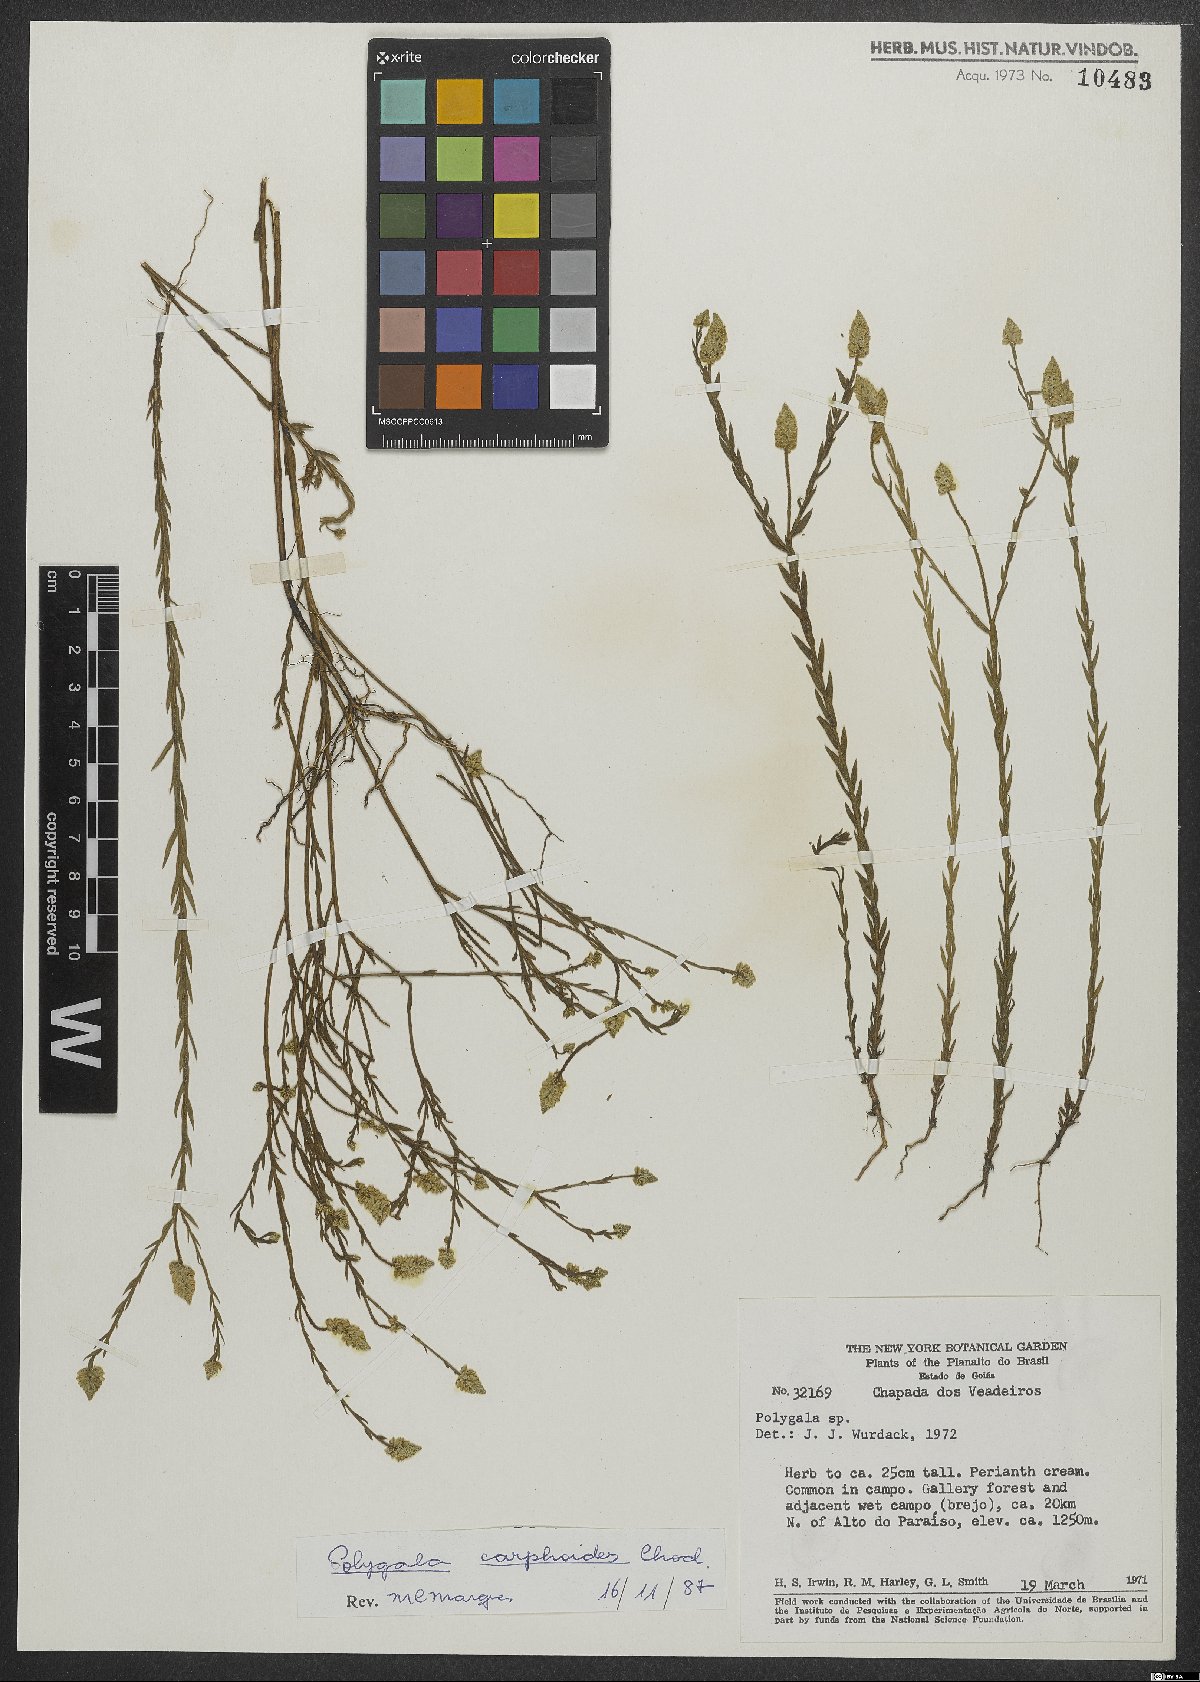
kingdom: Plantae
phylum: Tracheophyta
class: Magnoliopsida
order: Fabales
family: Polygalaceae
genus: Polygala
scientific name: Polygala carphoides
